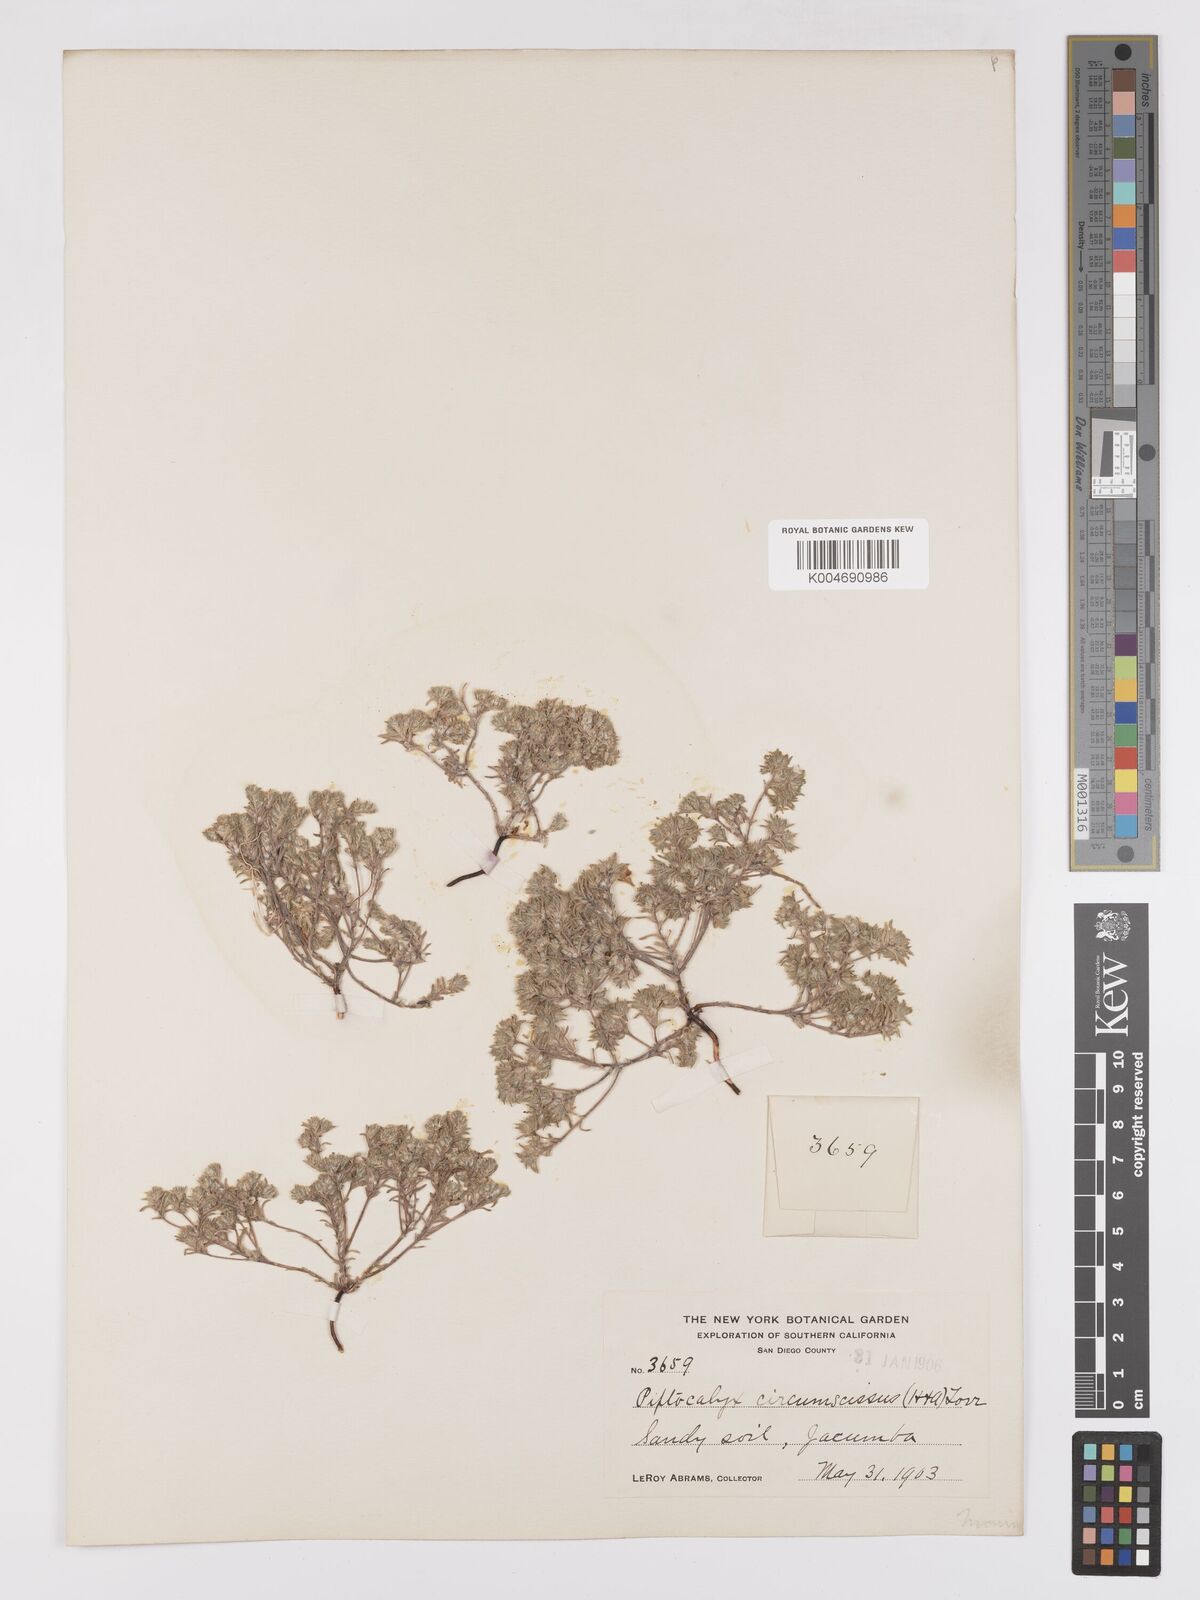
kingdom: Plantae
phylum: Tracheophyta
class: Magnoliopsida
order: Boraginales
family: Boraginaceae
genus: Greeneocharis
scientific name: Greeneocharis circumscissa
